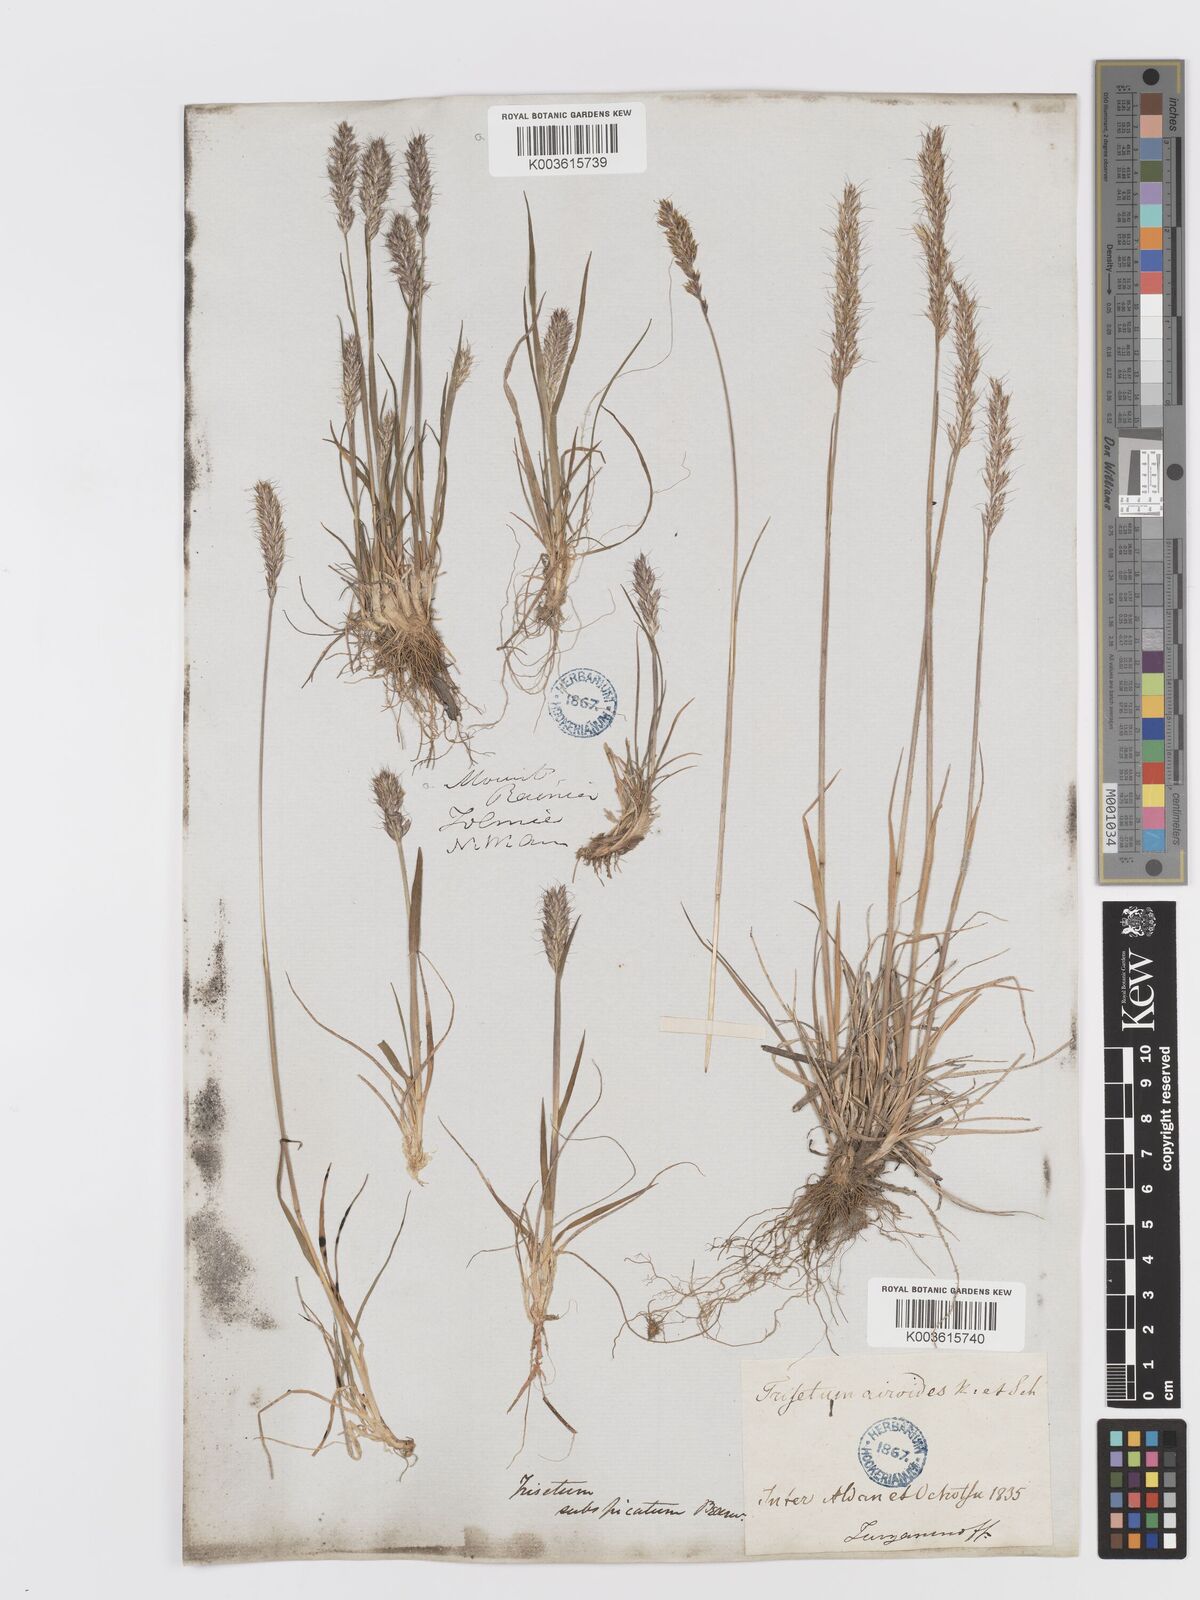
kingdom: Plantae
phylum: Tracheophyta
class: Liliopsida
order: Poales
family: Poaceae
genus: Koeleria
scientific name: Koeleria spicata
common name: Mountain trisetum
